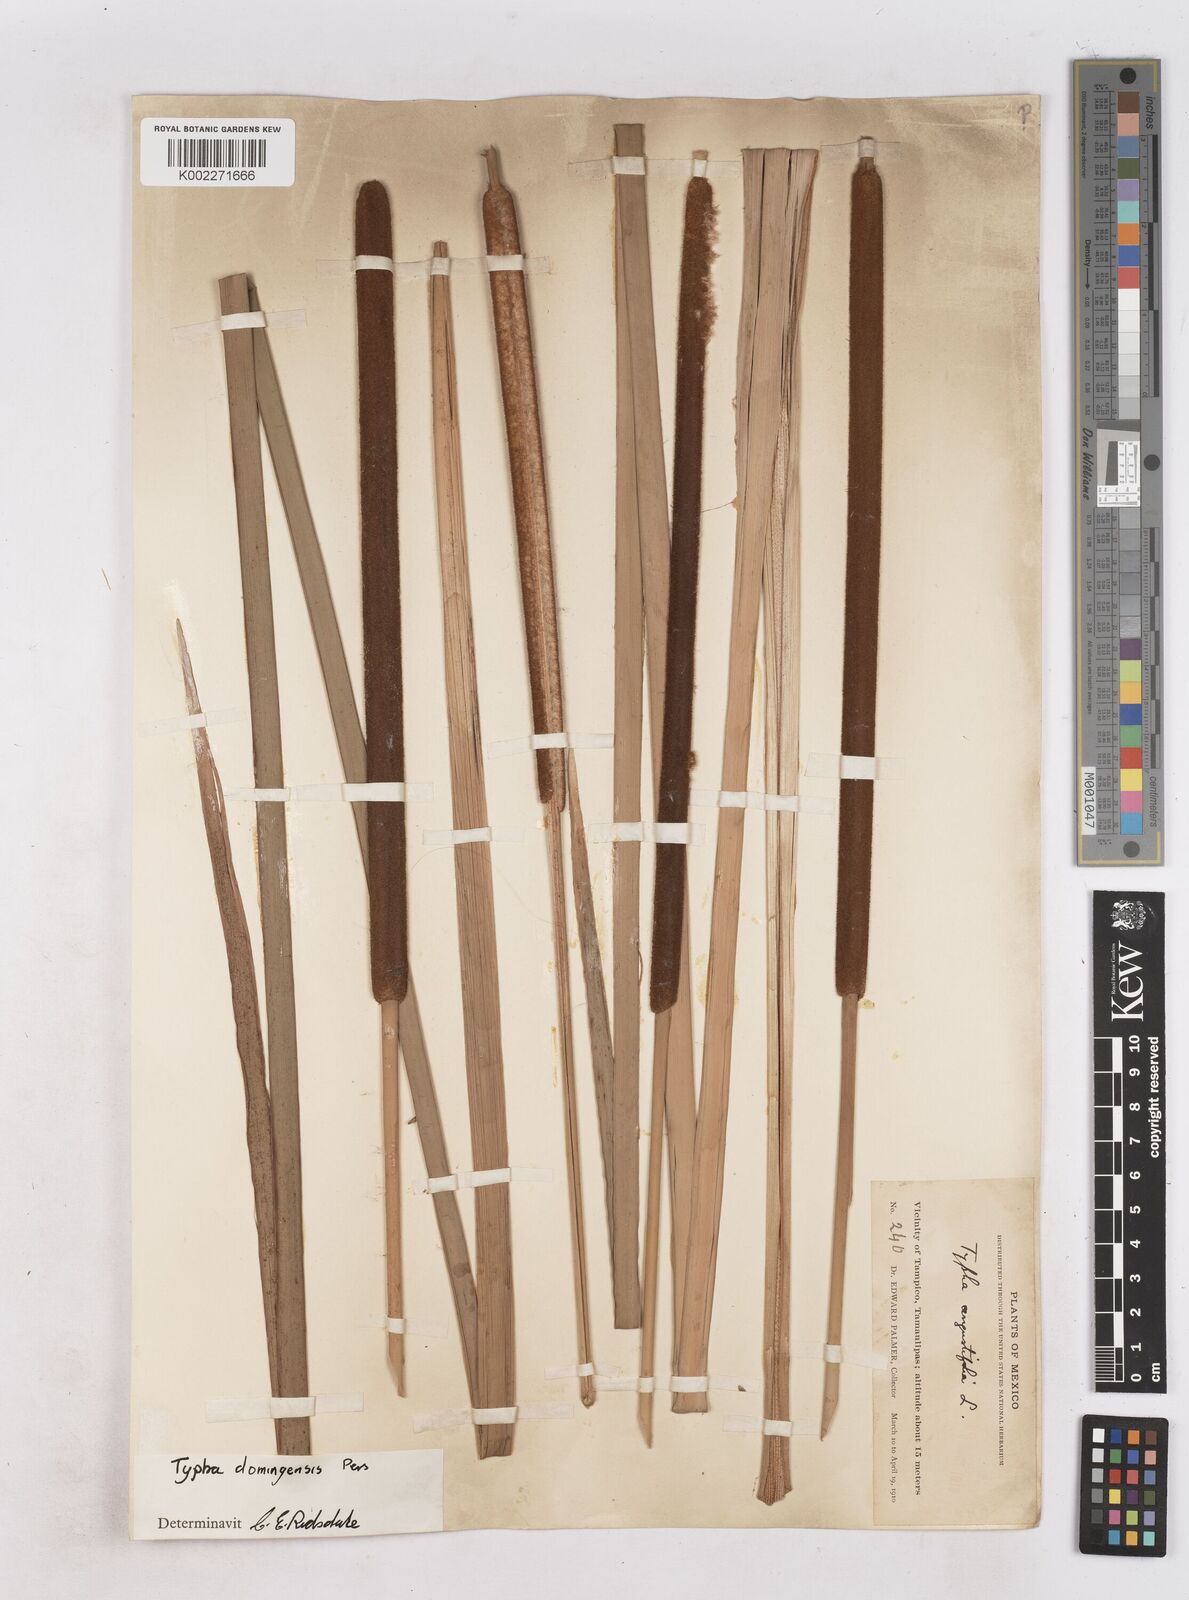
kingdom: Plantae
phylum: Tracheophyta
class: Liliopsida
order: Poales
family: Typhaceae
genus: Typha
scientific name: Typha domingensis
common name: Southern cattail
